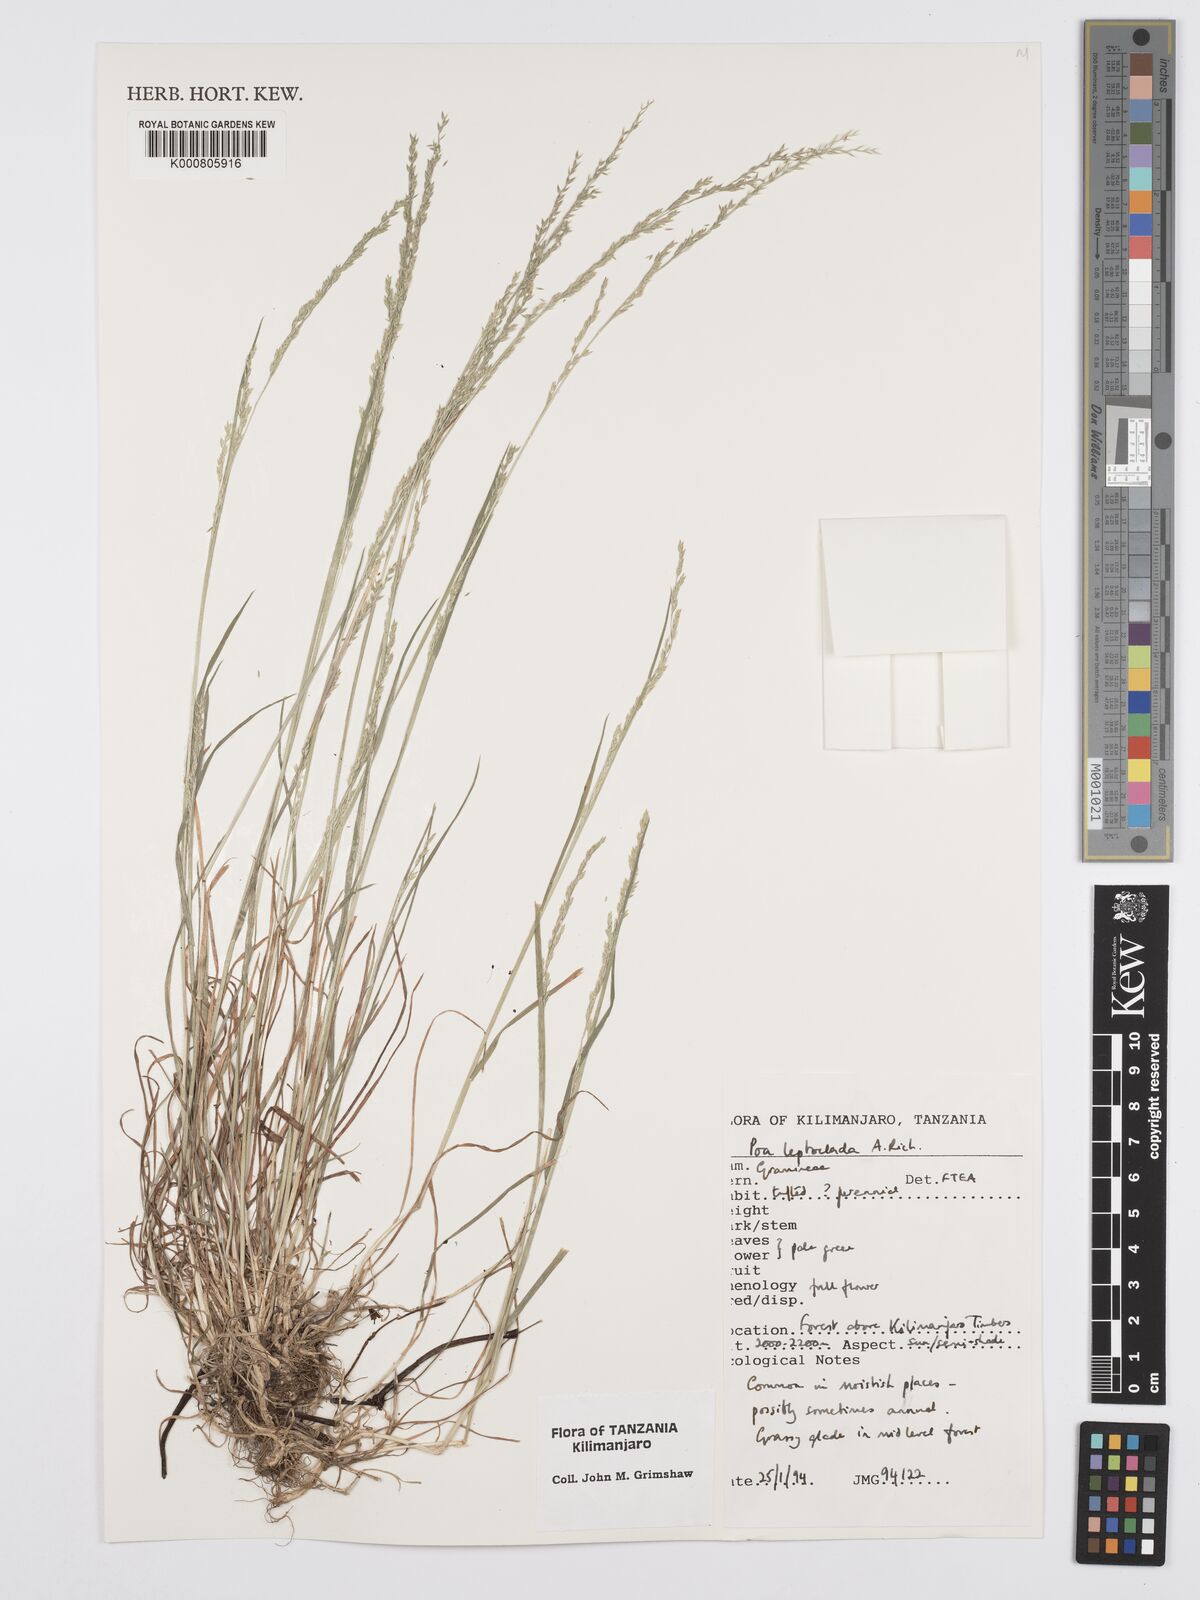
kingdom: Plantae
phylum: Tracheophyta
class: Liliopsida
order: Poales
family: Poaceae
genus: Poa
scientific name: Poa leptoclada
